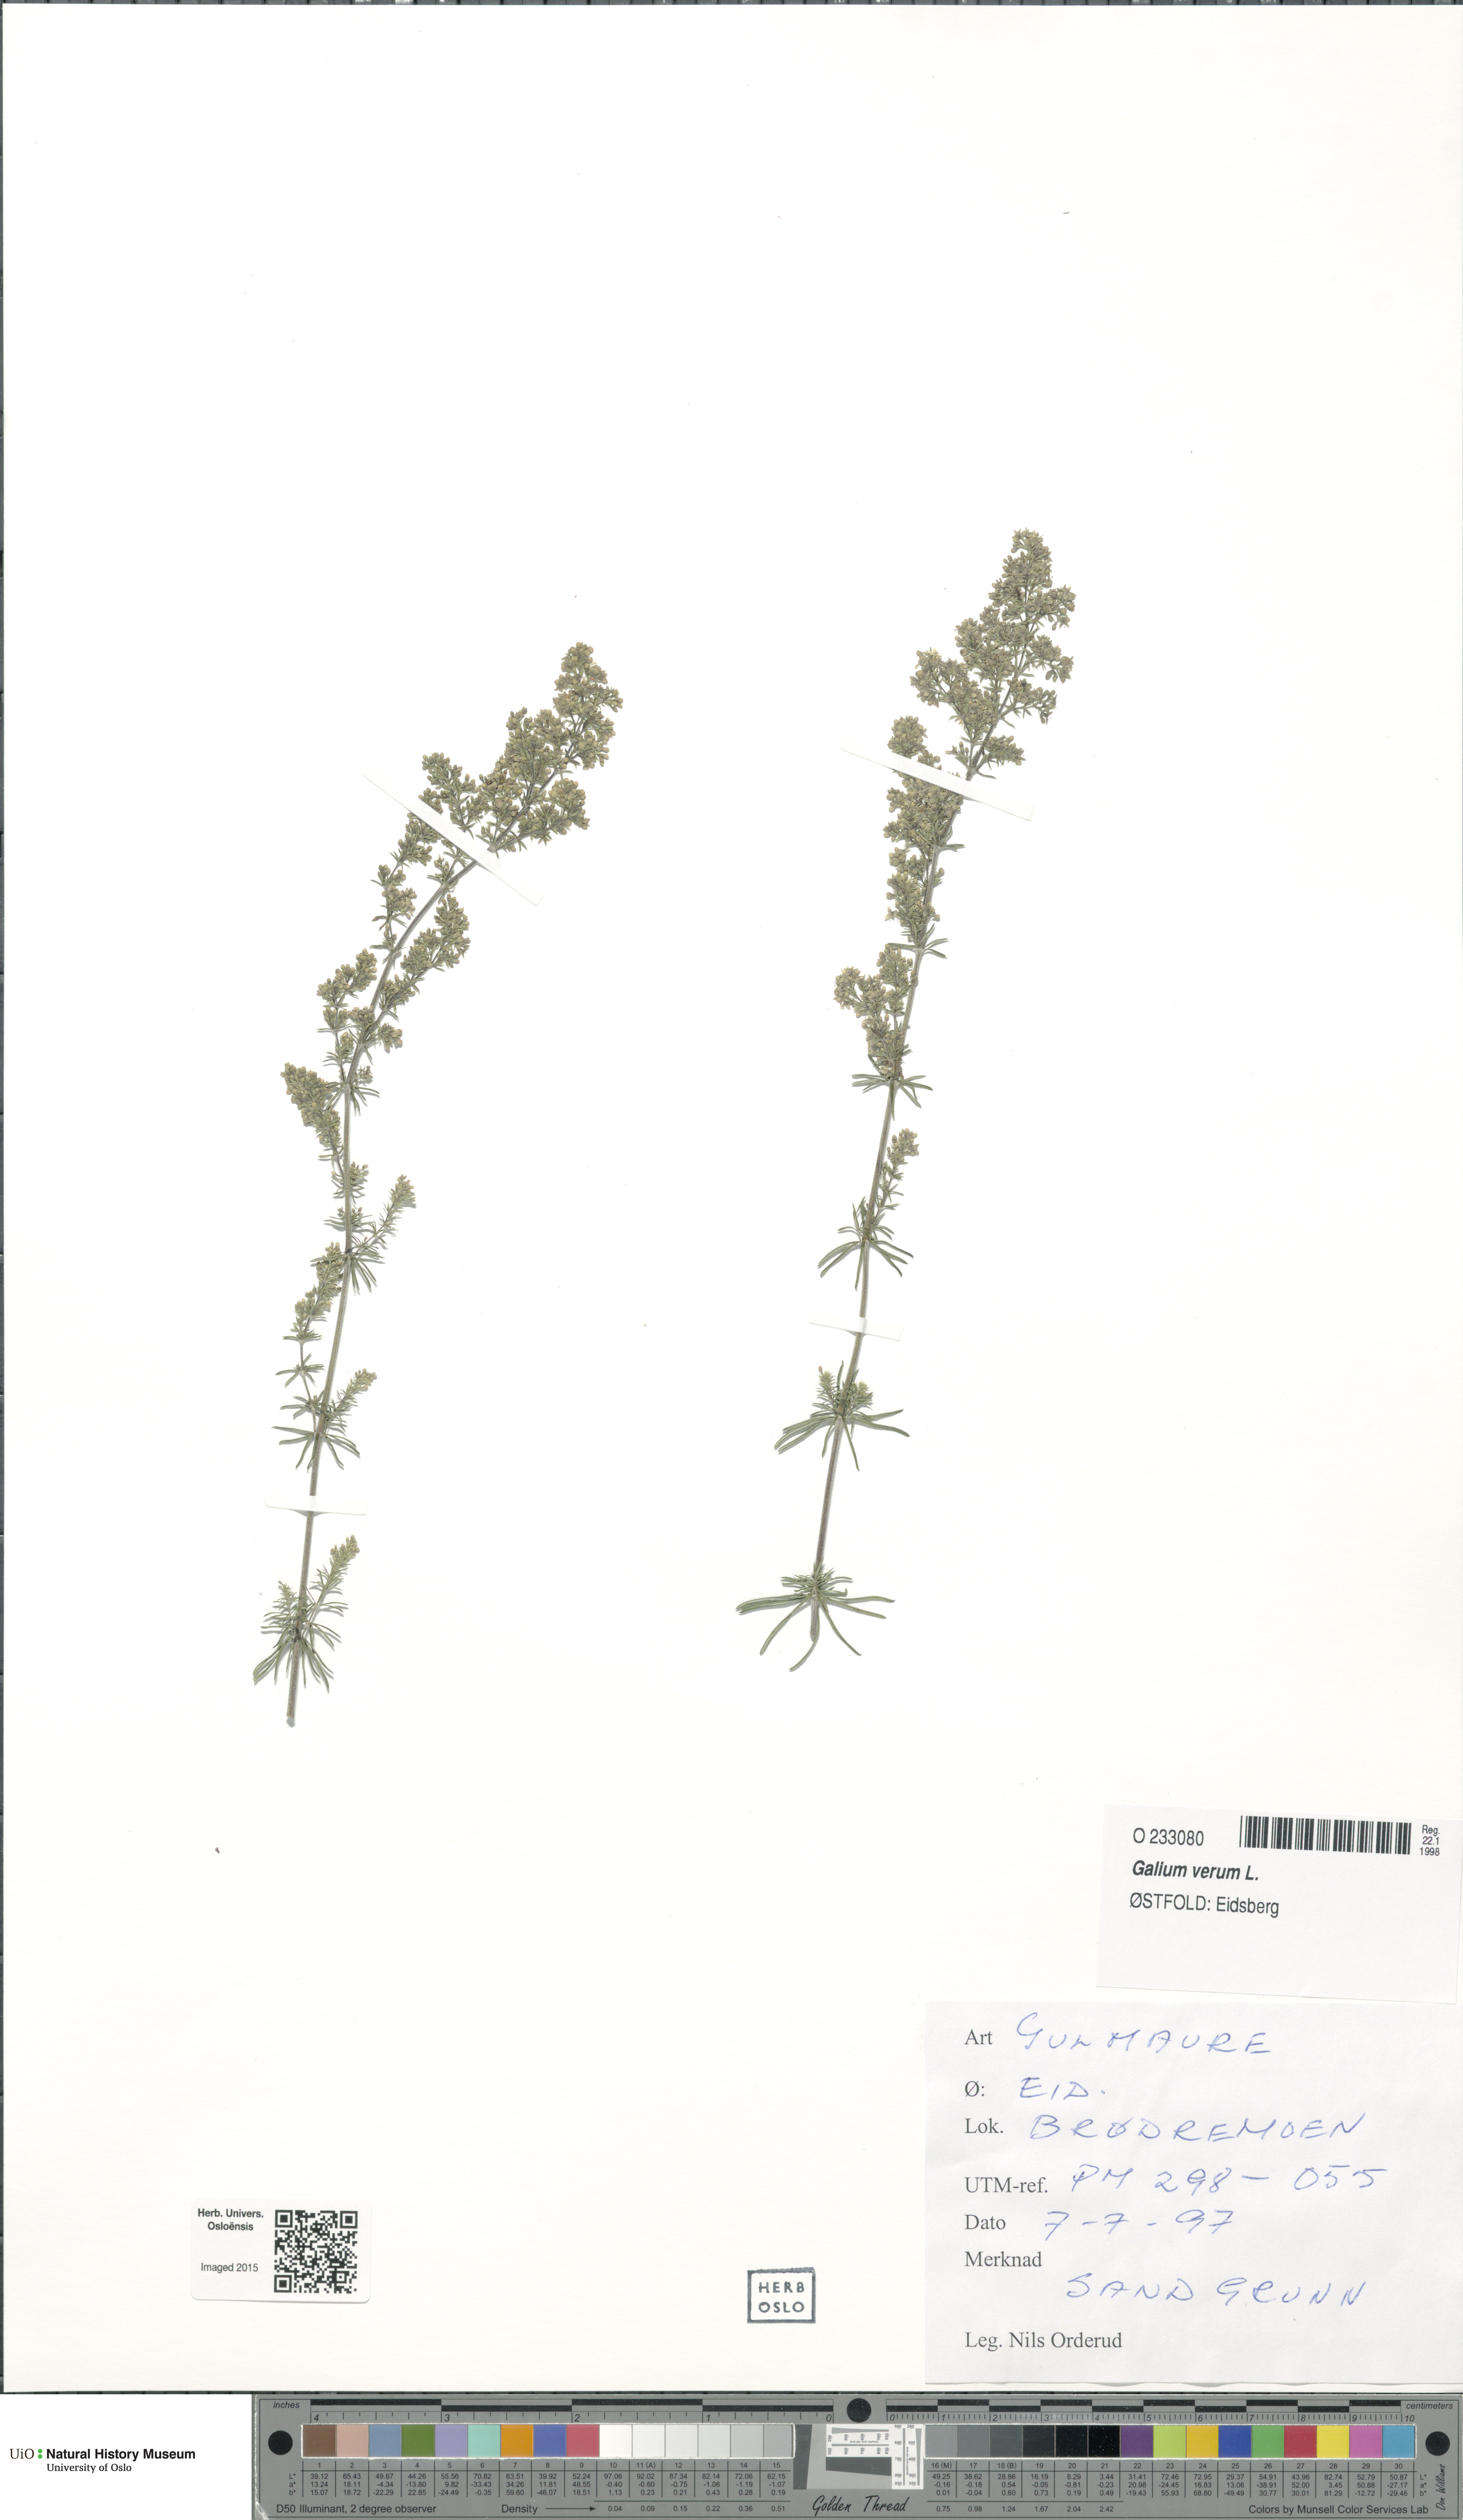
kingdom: Plantae
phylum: Tracheophyta
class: Magnoliopsida
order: Gentianales
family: Rubiaceae
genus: Galium
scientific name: Galium verum
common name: Lady's bedstraw
